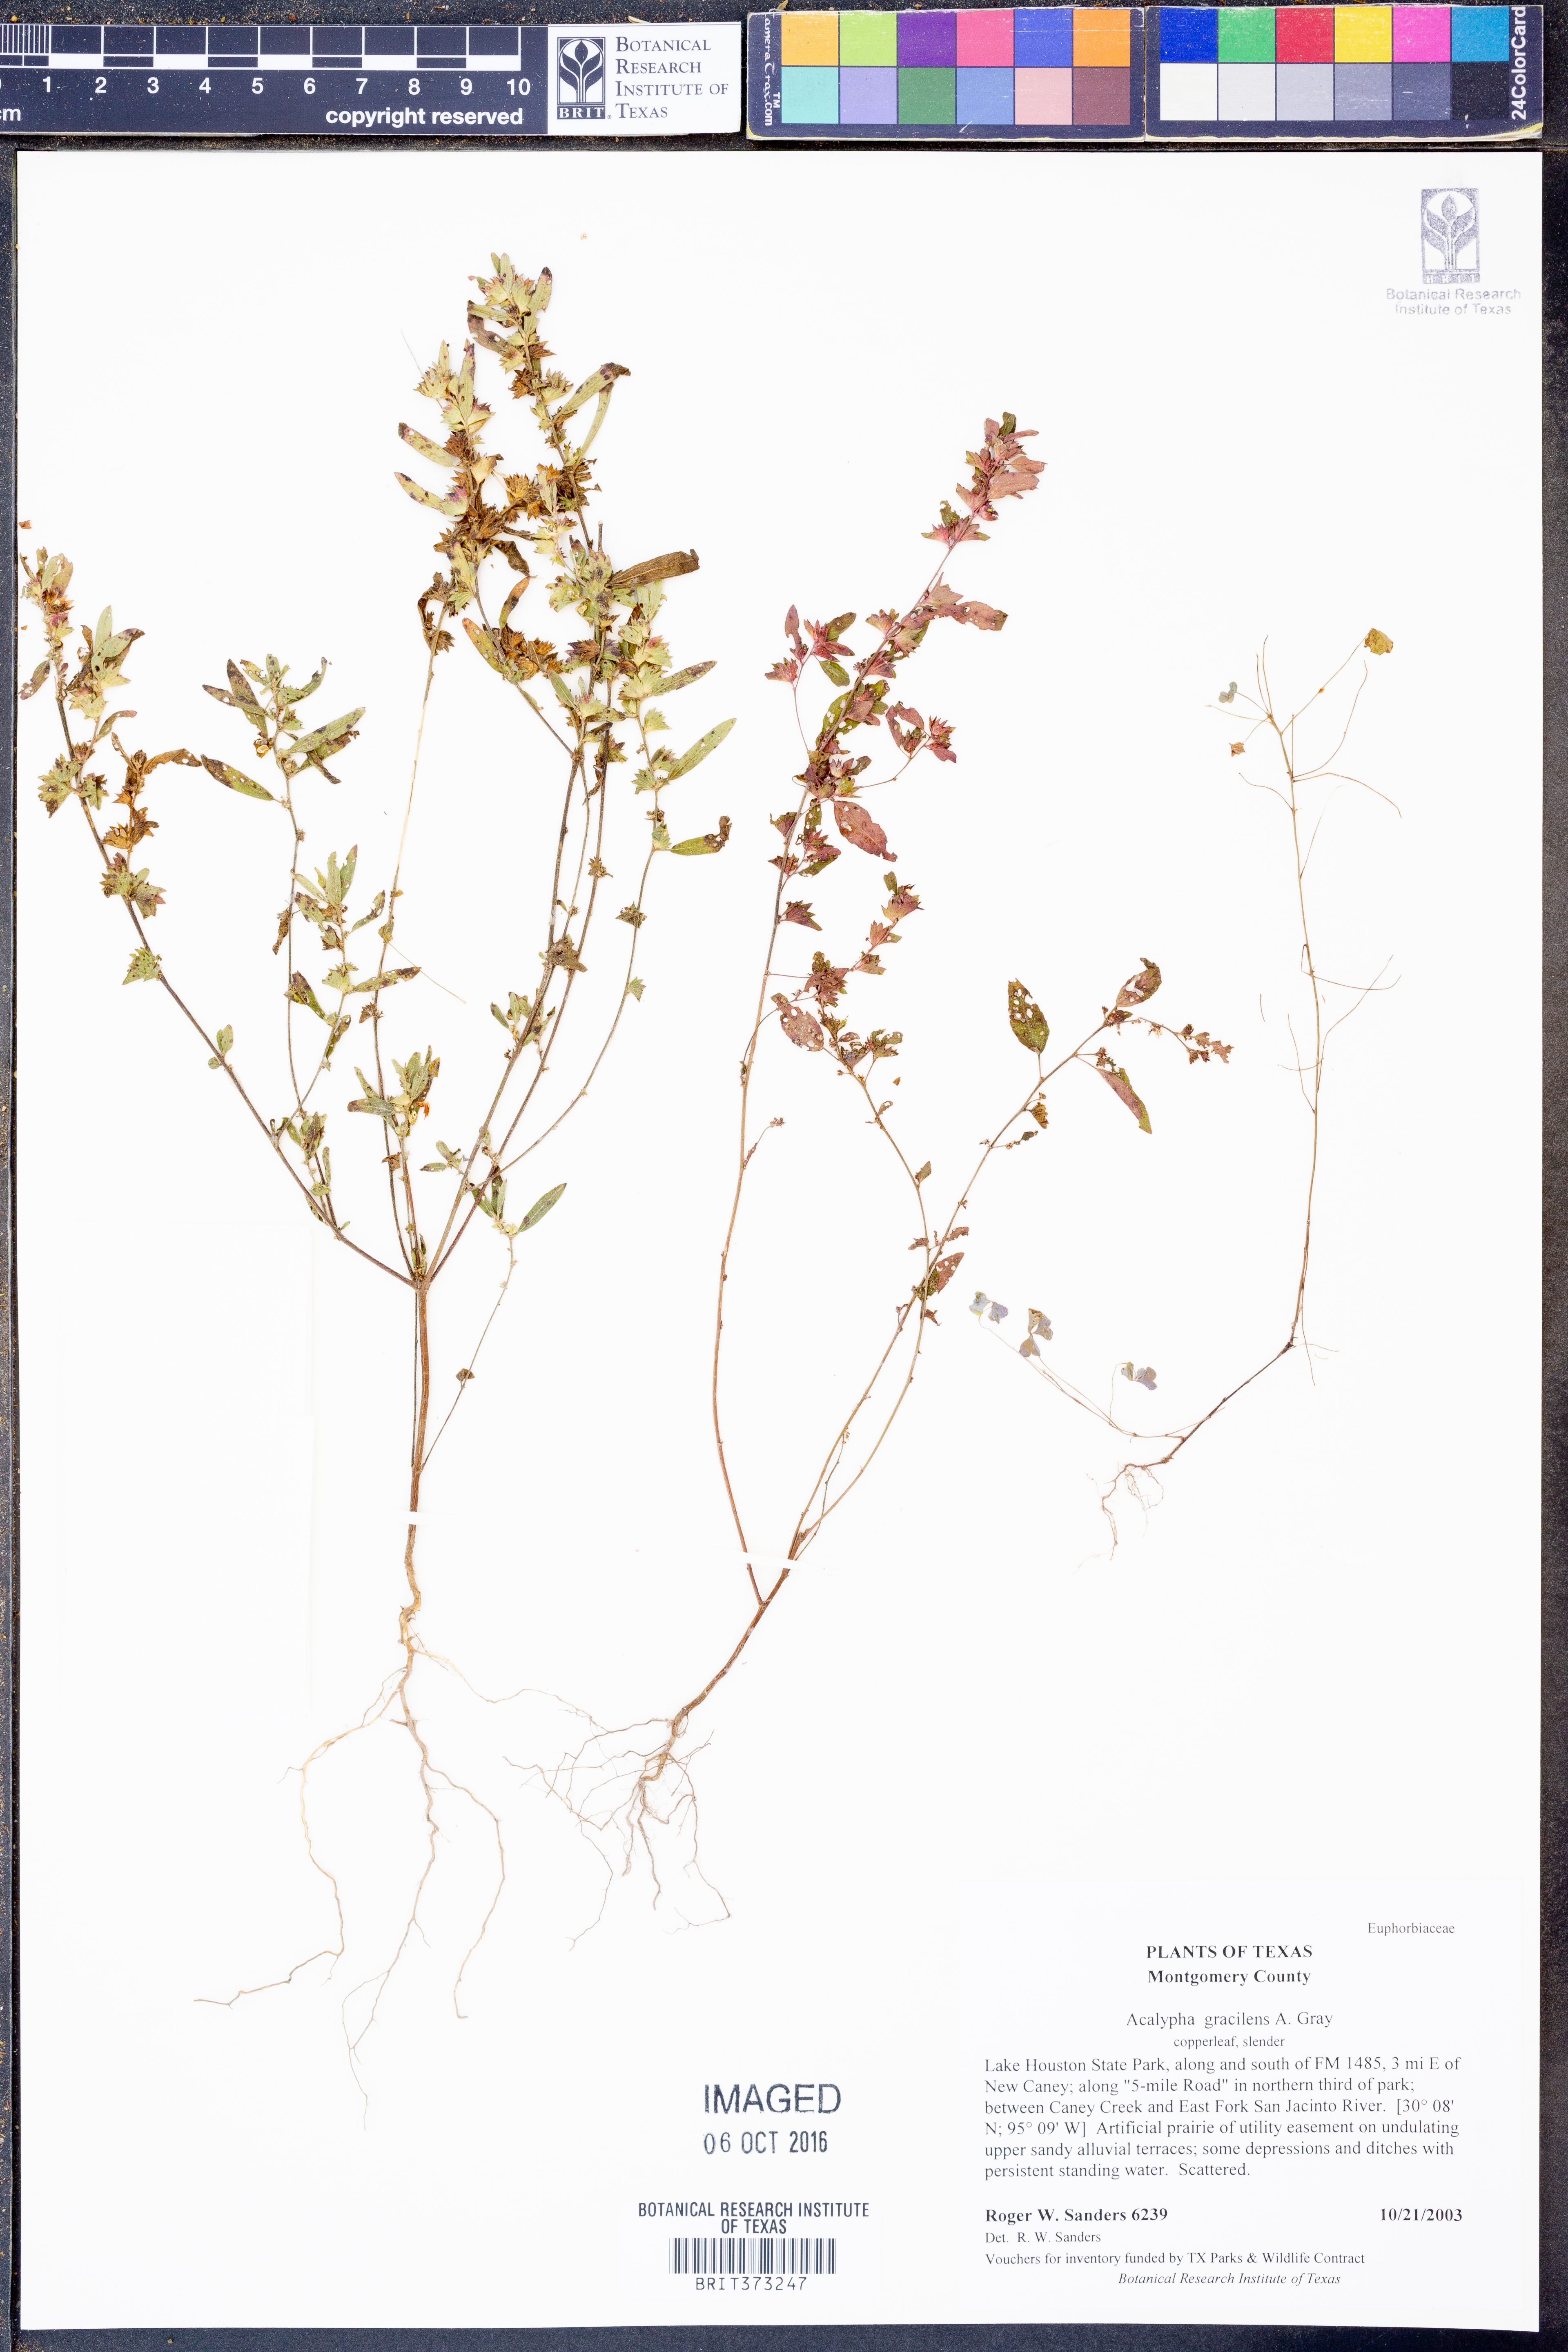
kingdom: Plantae
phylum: Tracheophyta
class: Magnoliopsida
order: Malpighiales
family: Euphorbiaceae
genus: Acalypha
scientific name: Acalypha gracilens
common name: Slender three-seeded mercury
